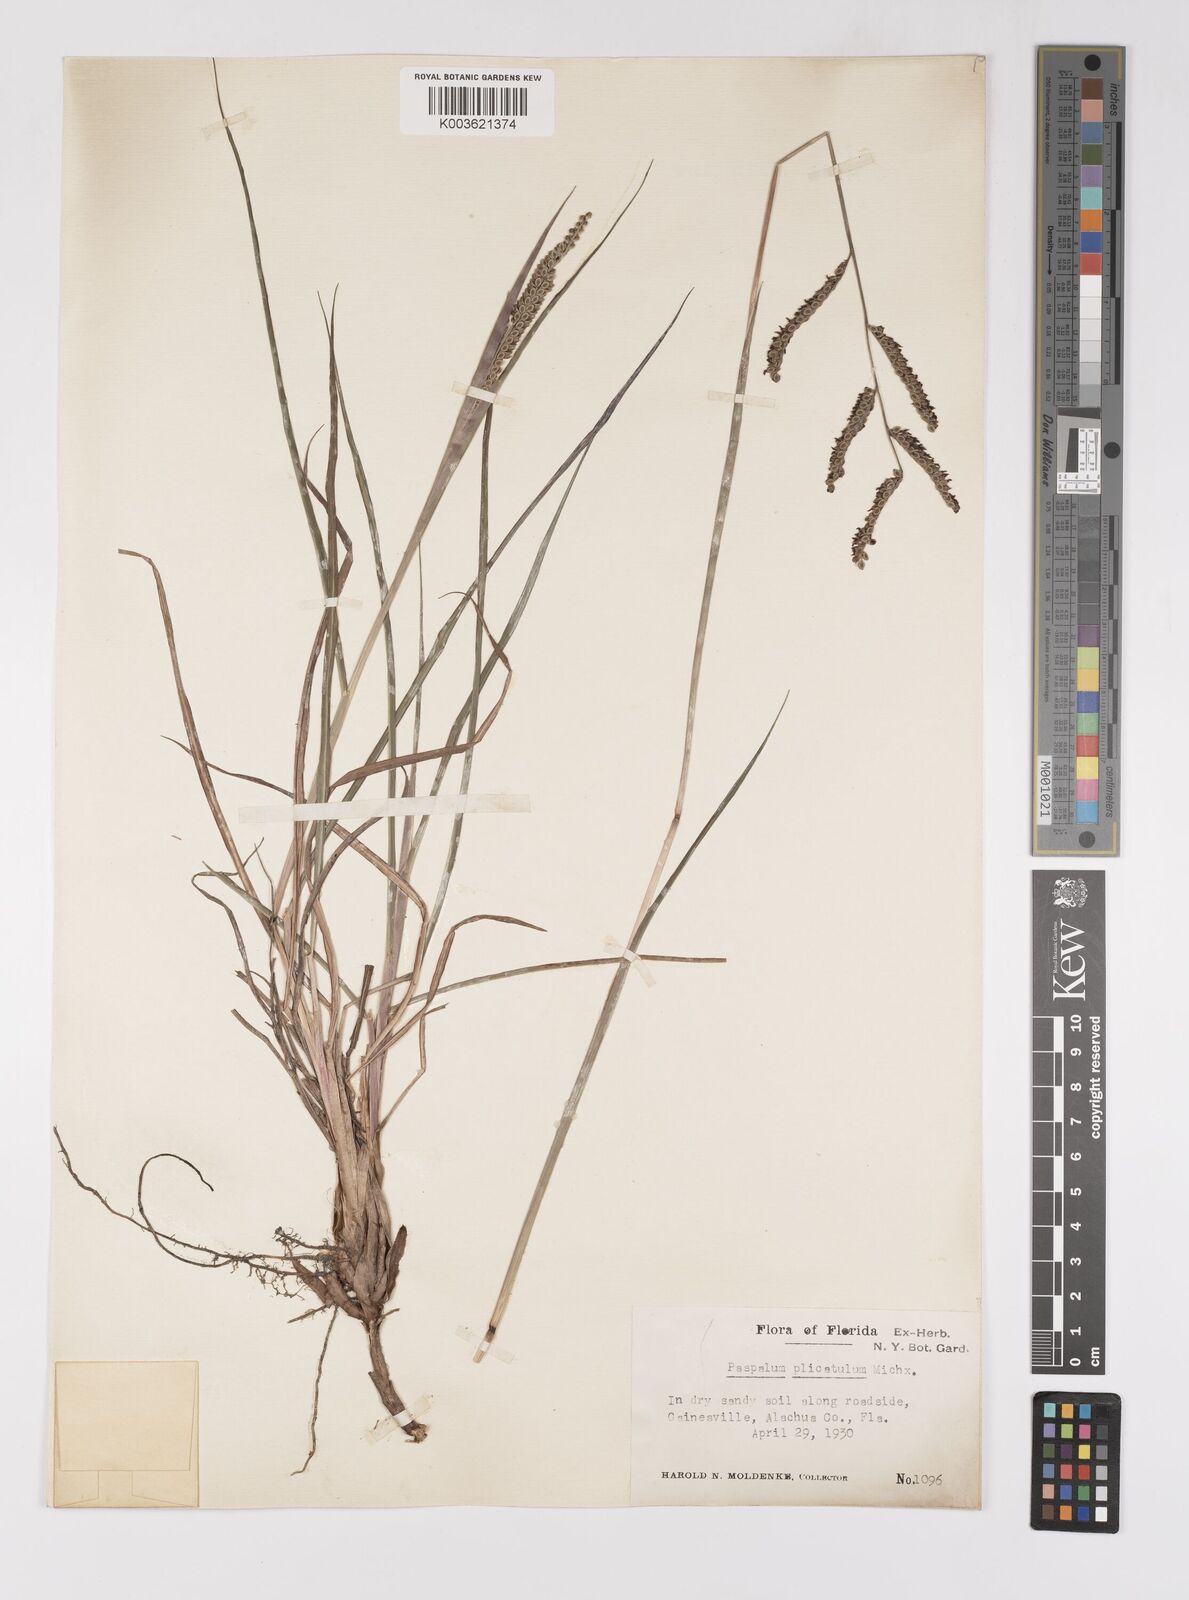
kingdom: Plantae
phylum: Tracheophyta
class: Liliopsida
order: Poales
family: Poaceae
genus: Paspalum
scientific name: Paspalum plicatulum
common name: Top paspalum
